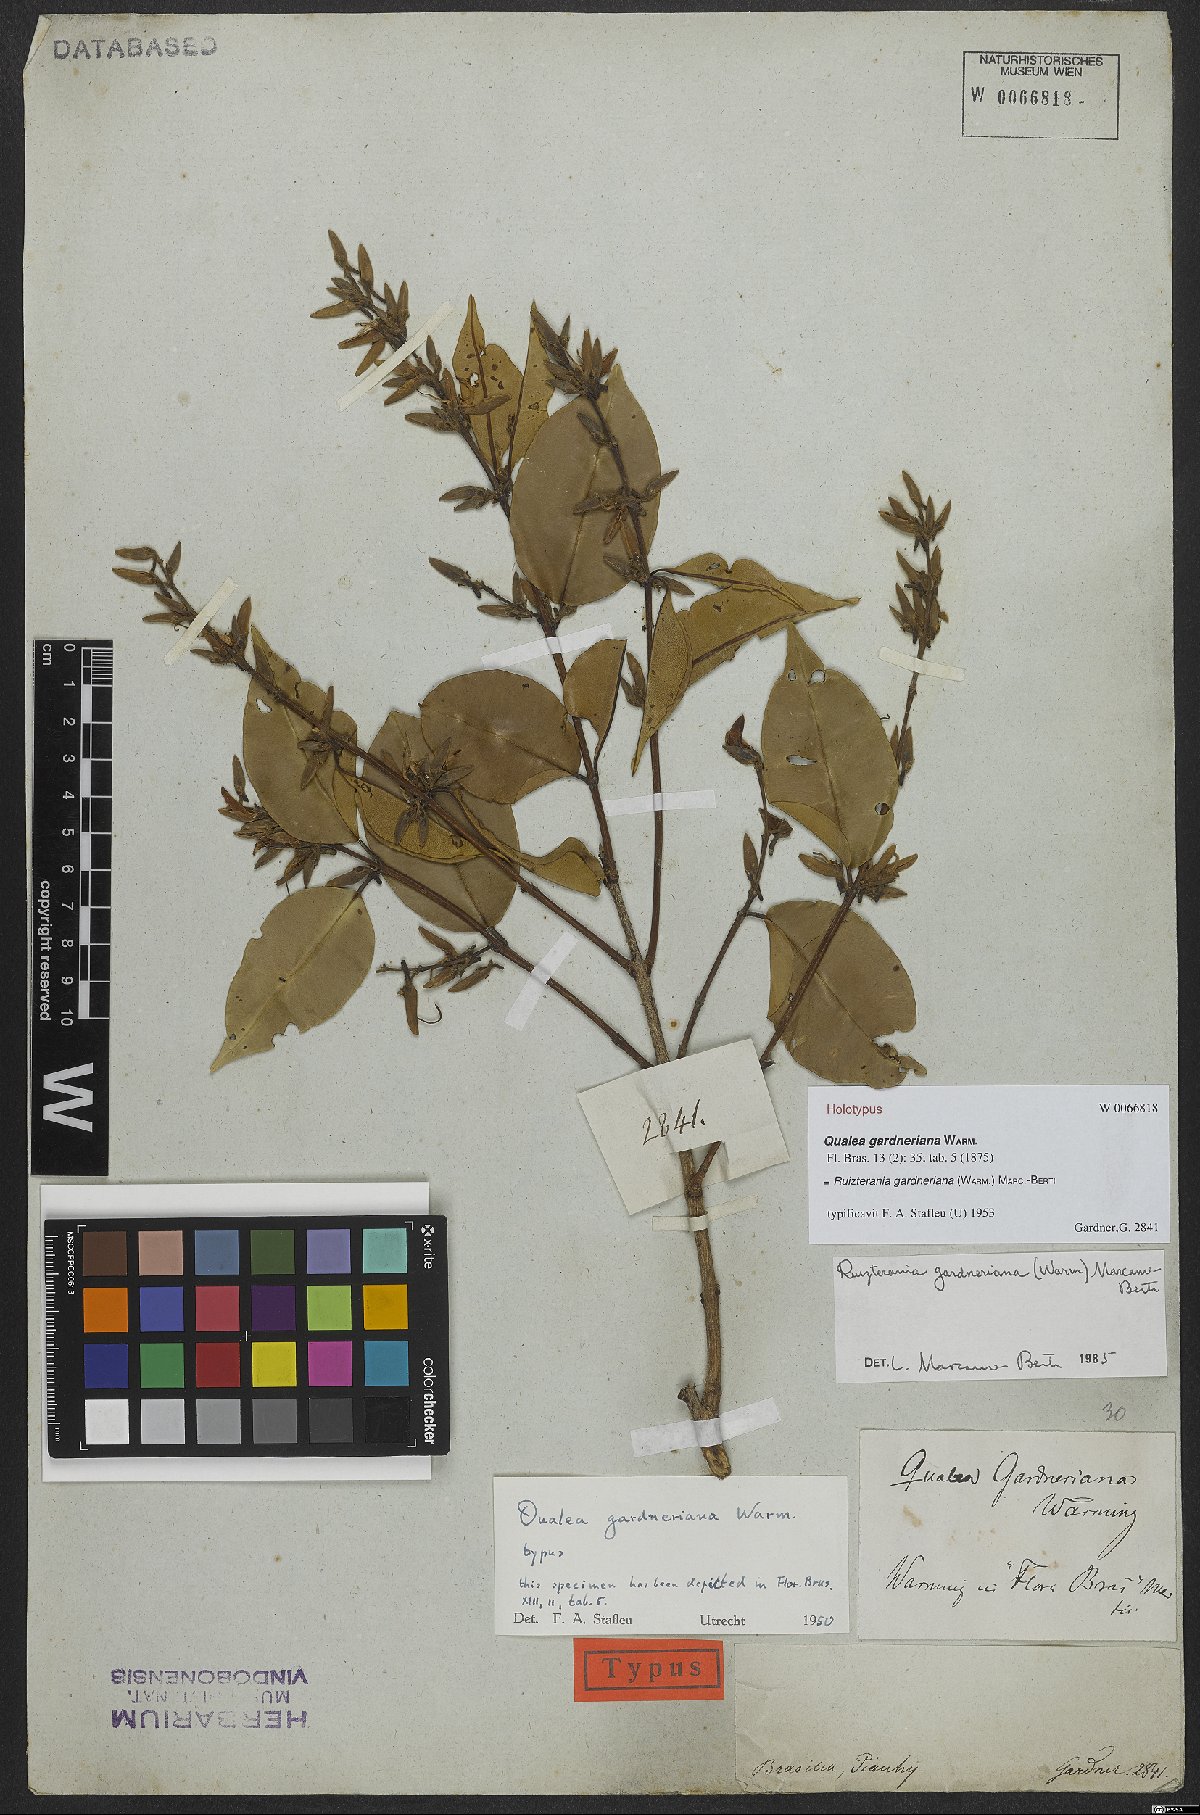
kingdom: Plantae
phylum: Tracheophyta
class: Magnoliopsida
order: Myrtales
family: Vochysiaceae
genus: Ruizterania
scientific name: Ruizterania gardneriana
